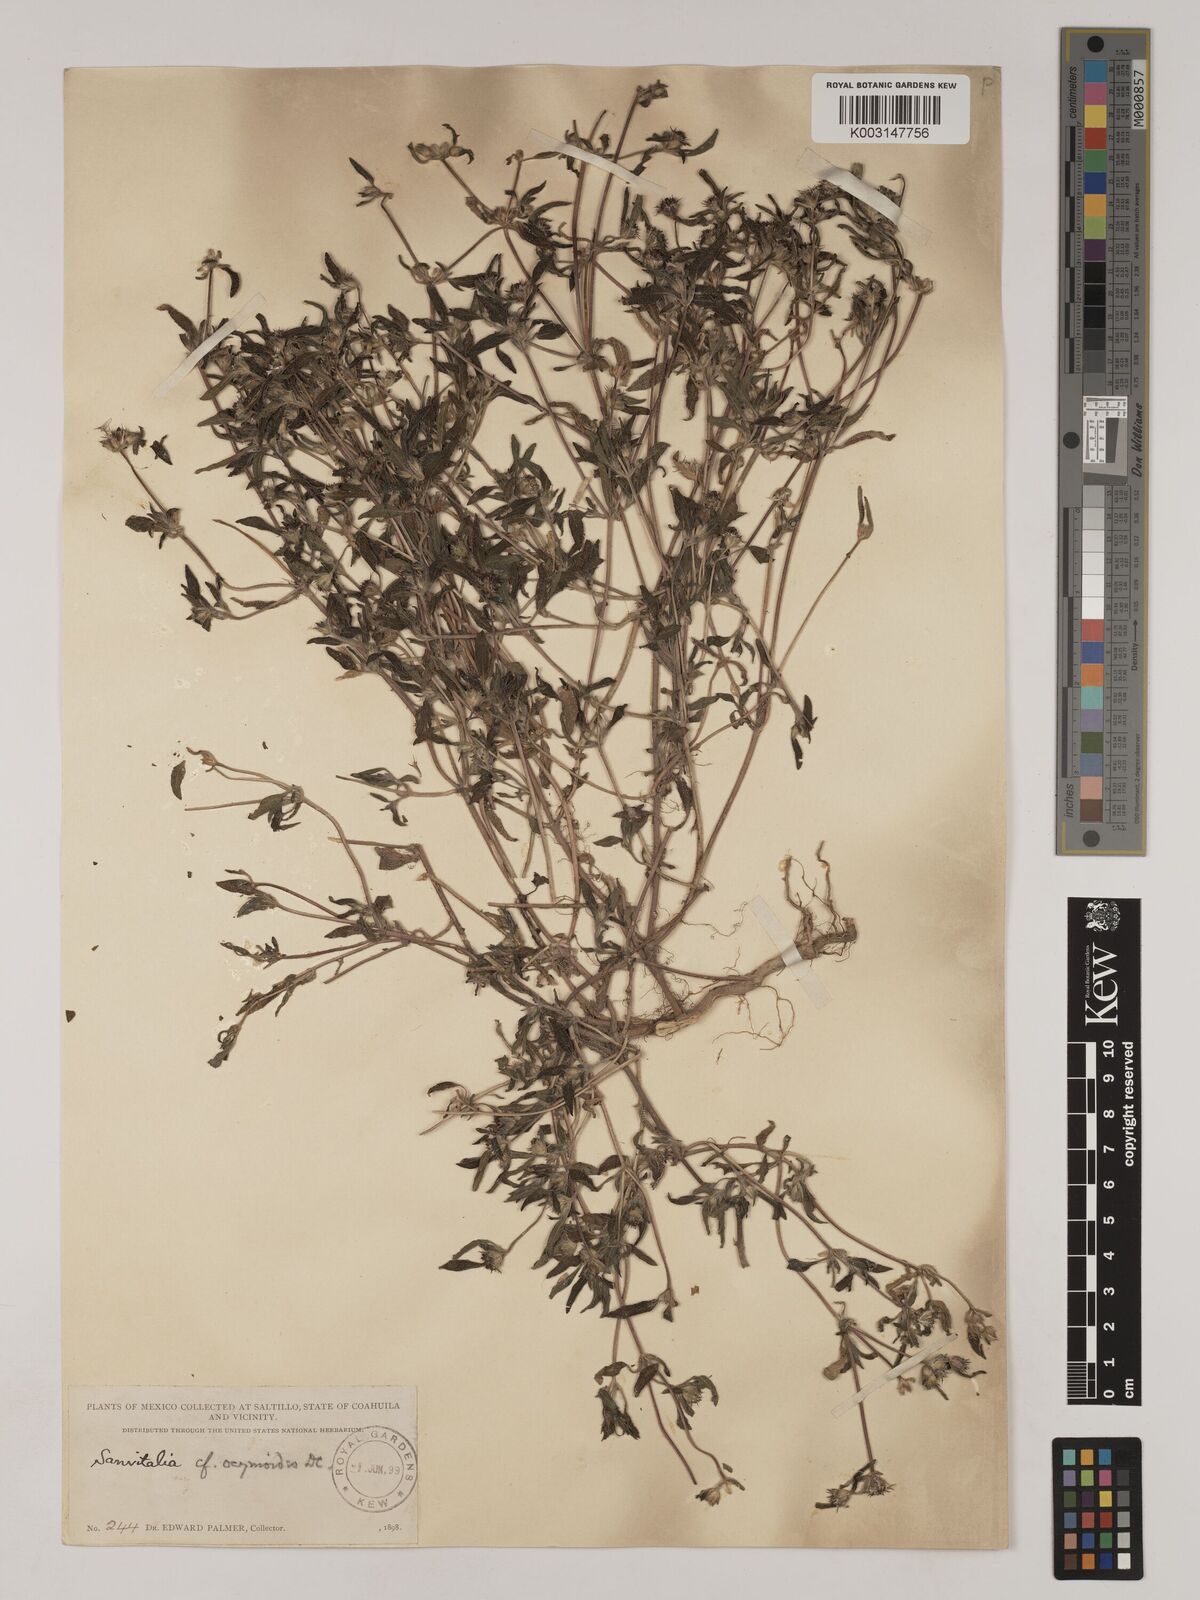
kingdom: Plantae
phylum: Tracheophyta
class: Magnoliopsida
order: Asterales
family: Asteraceae
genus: Sanvitalia
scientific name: Sanvitalia ocymoides
